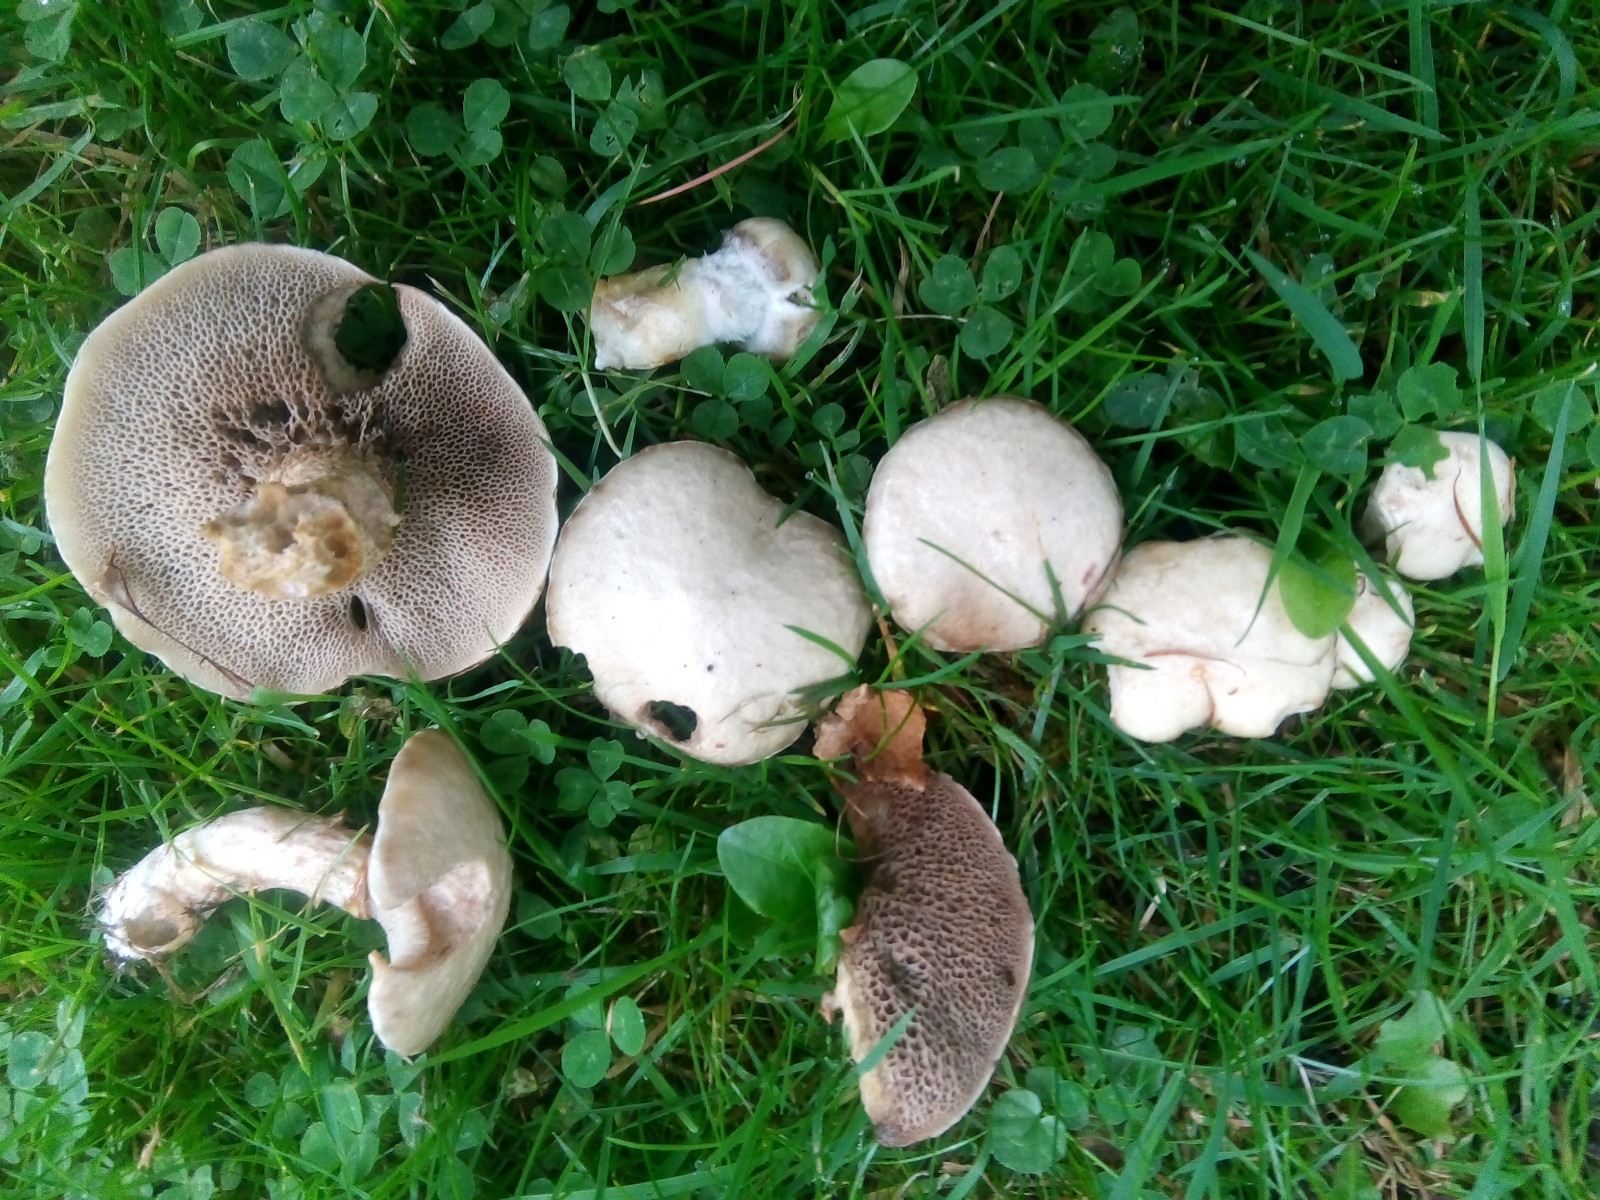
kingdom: Fungi
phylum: Basidiomycota
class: Agaricomycetes
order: Boletales
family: Suillaceae
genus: Suillus
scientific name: Suillus viscidus
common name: olivengrå slimrørhat
